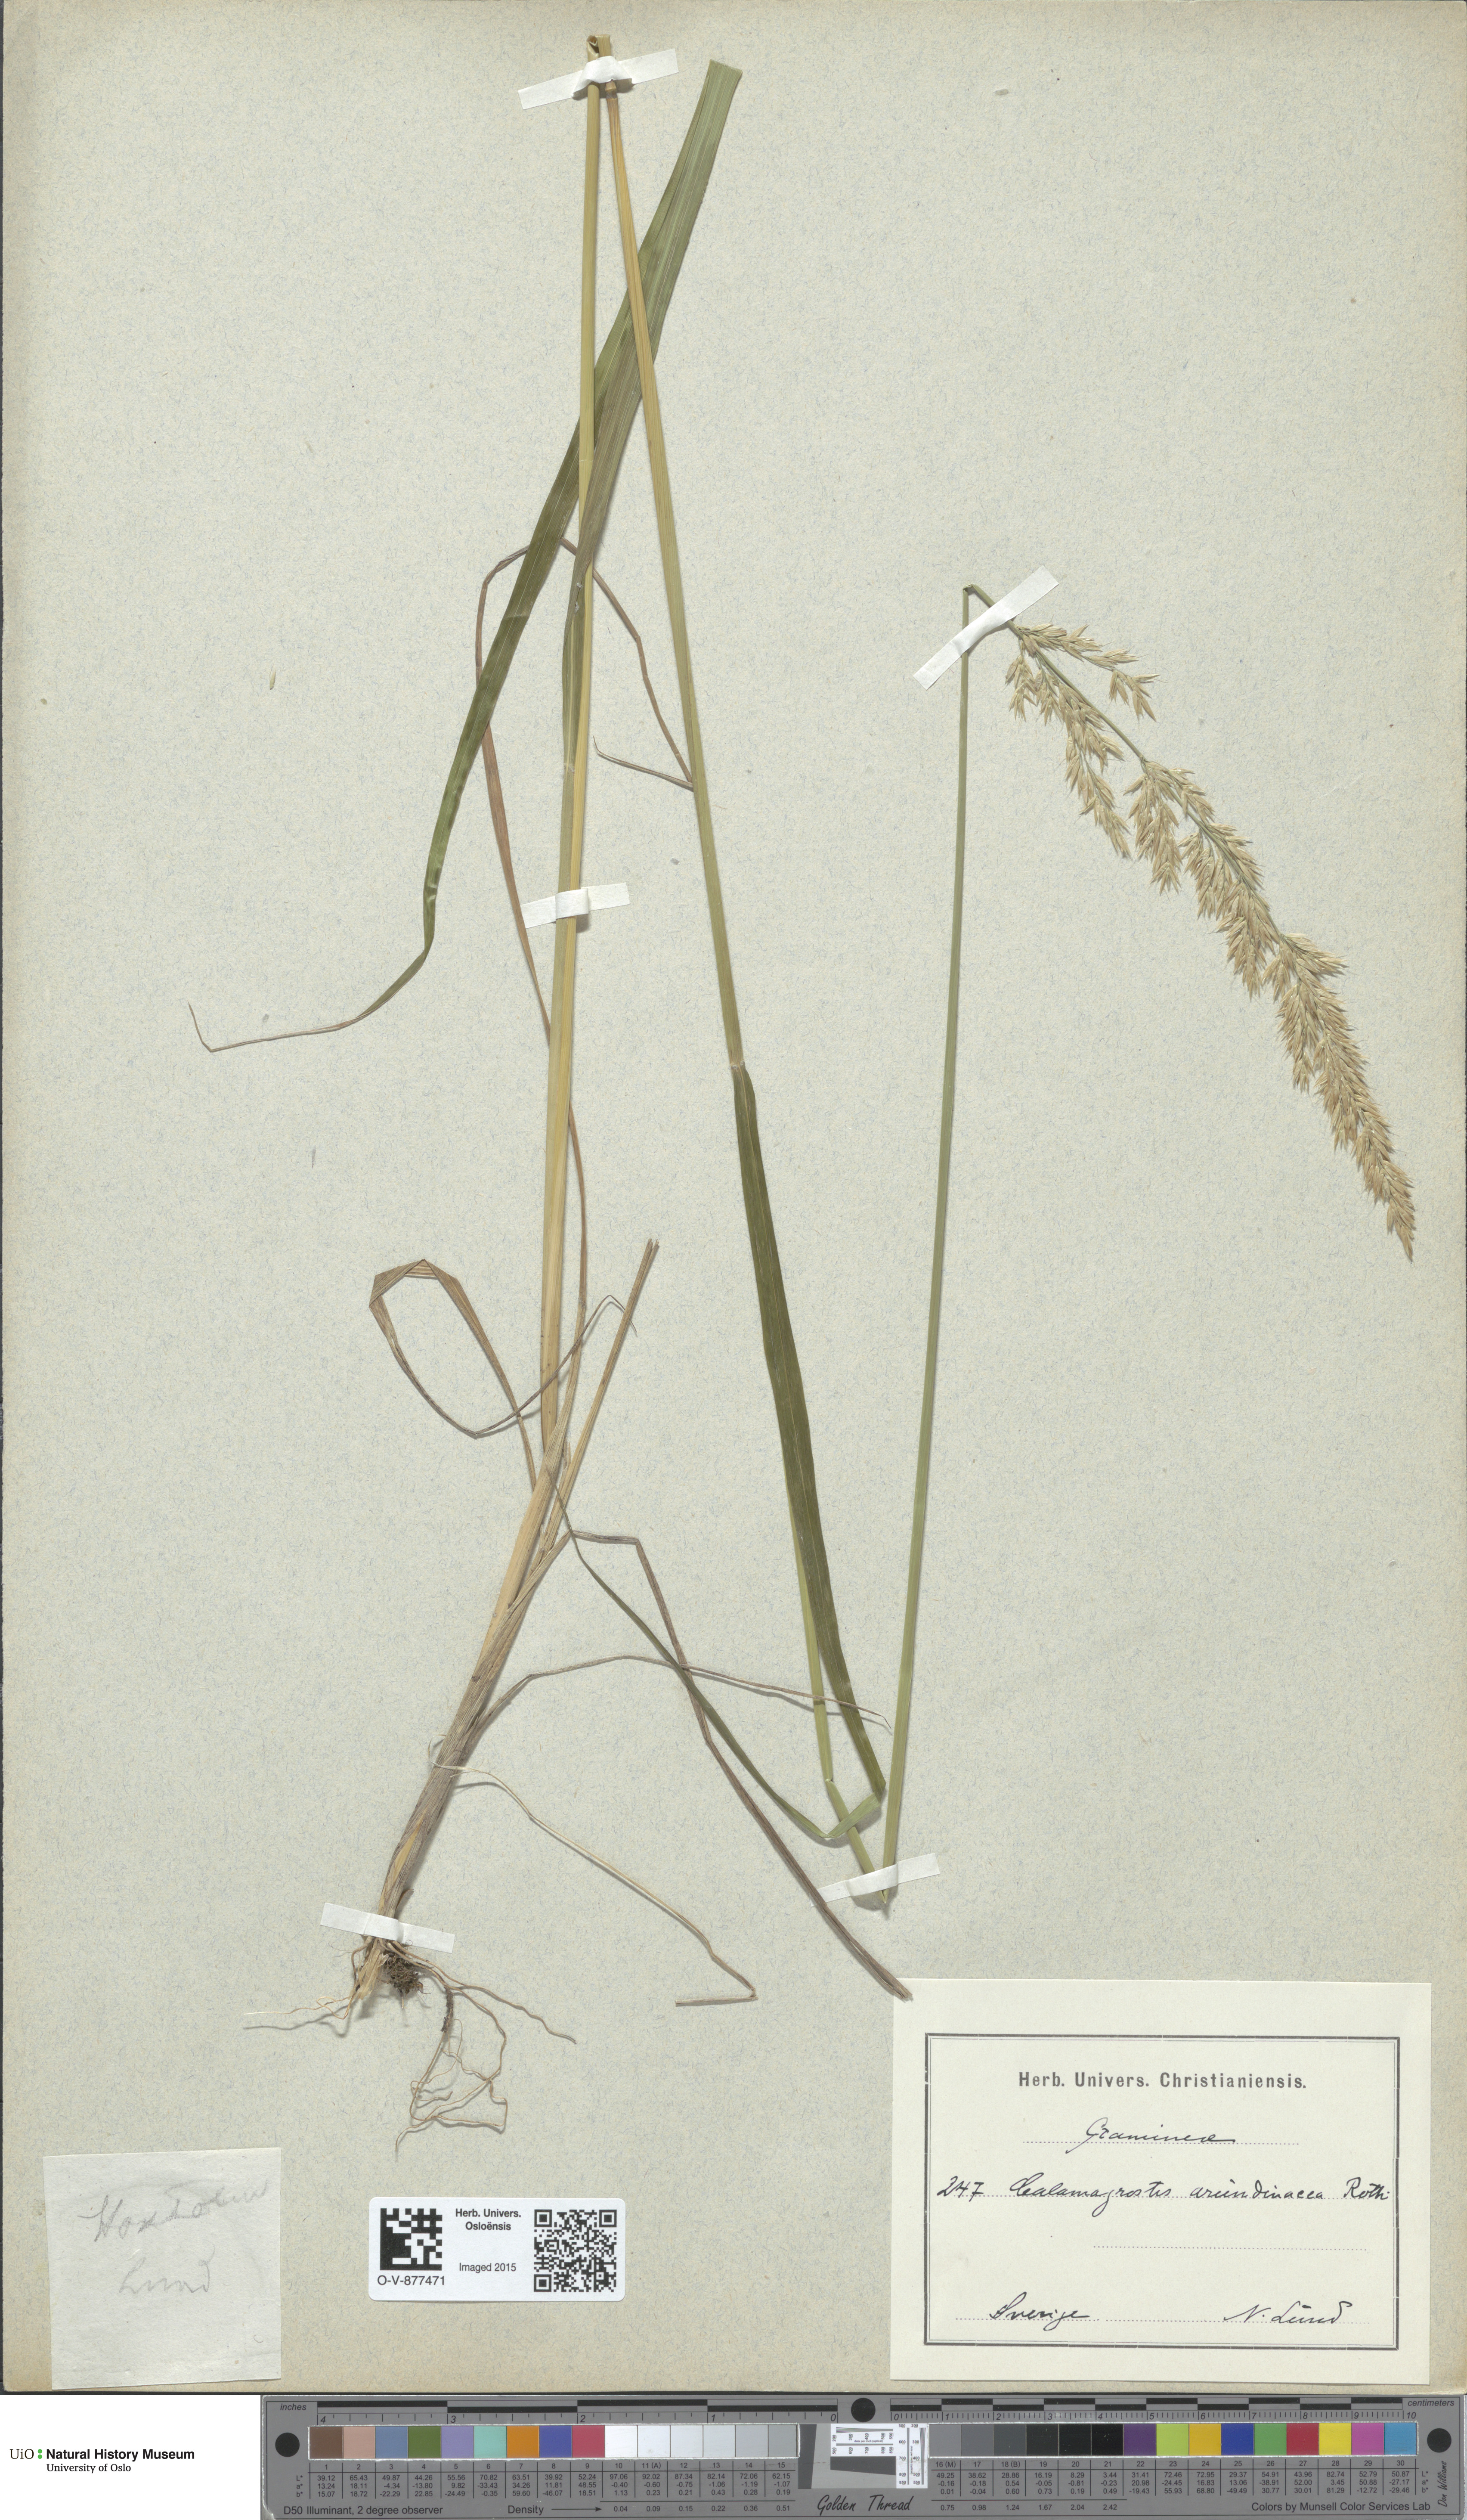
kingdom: Plantae
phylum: Tracheophyta
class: Liliopsida
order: Poales
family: Poaceae
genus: Calamagrostis
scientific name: Calamagrostis arundinacea
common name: Metskastik
